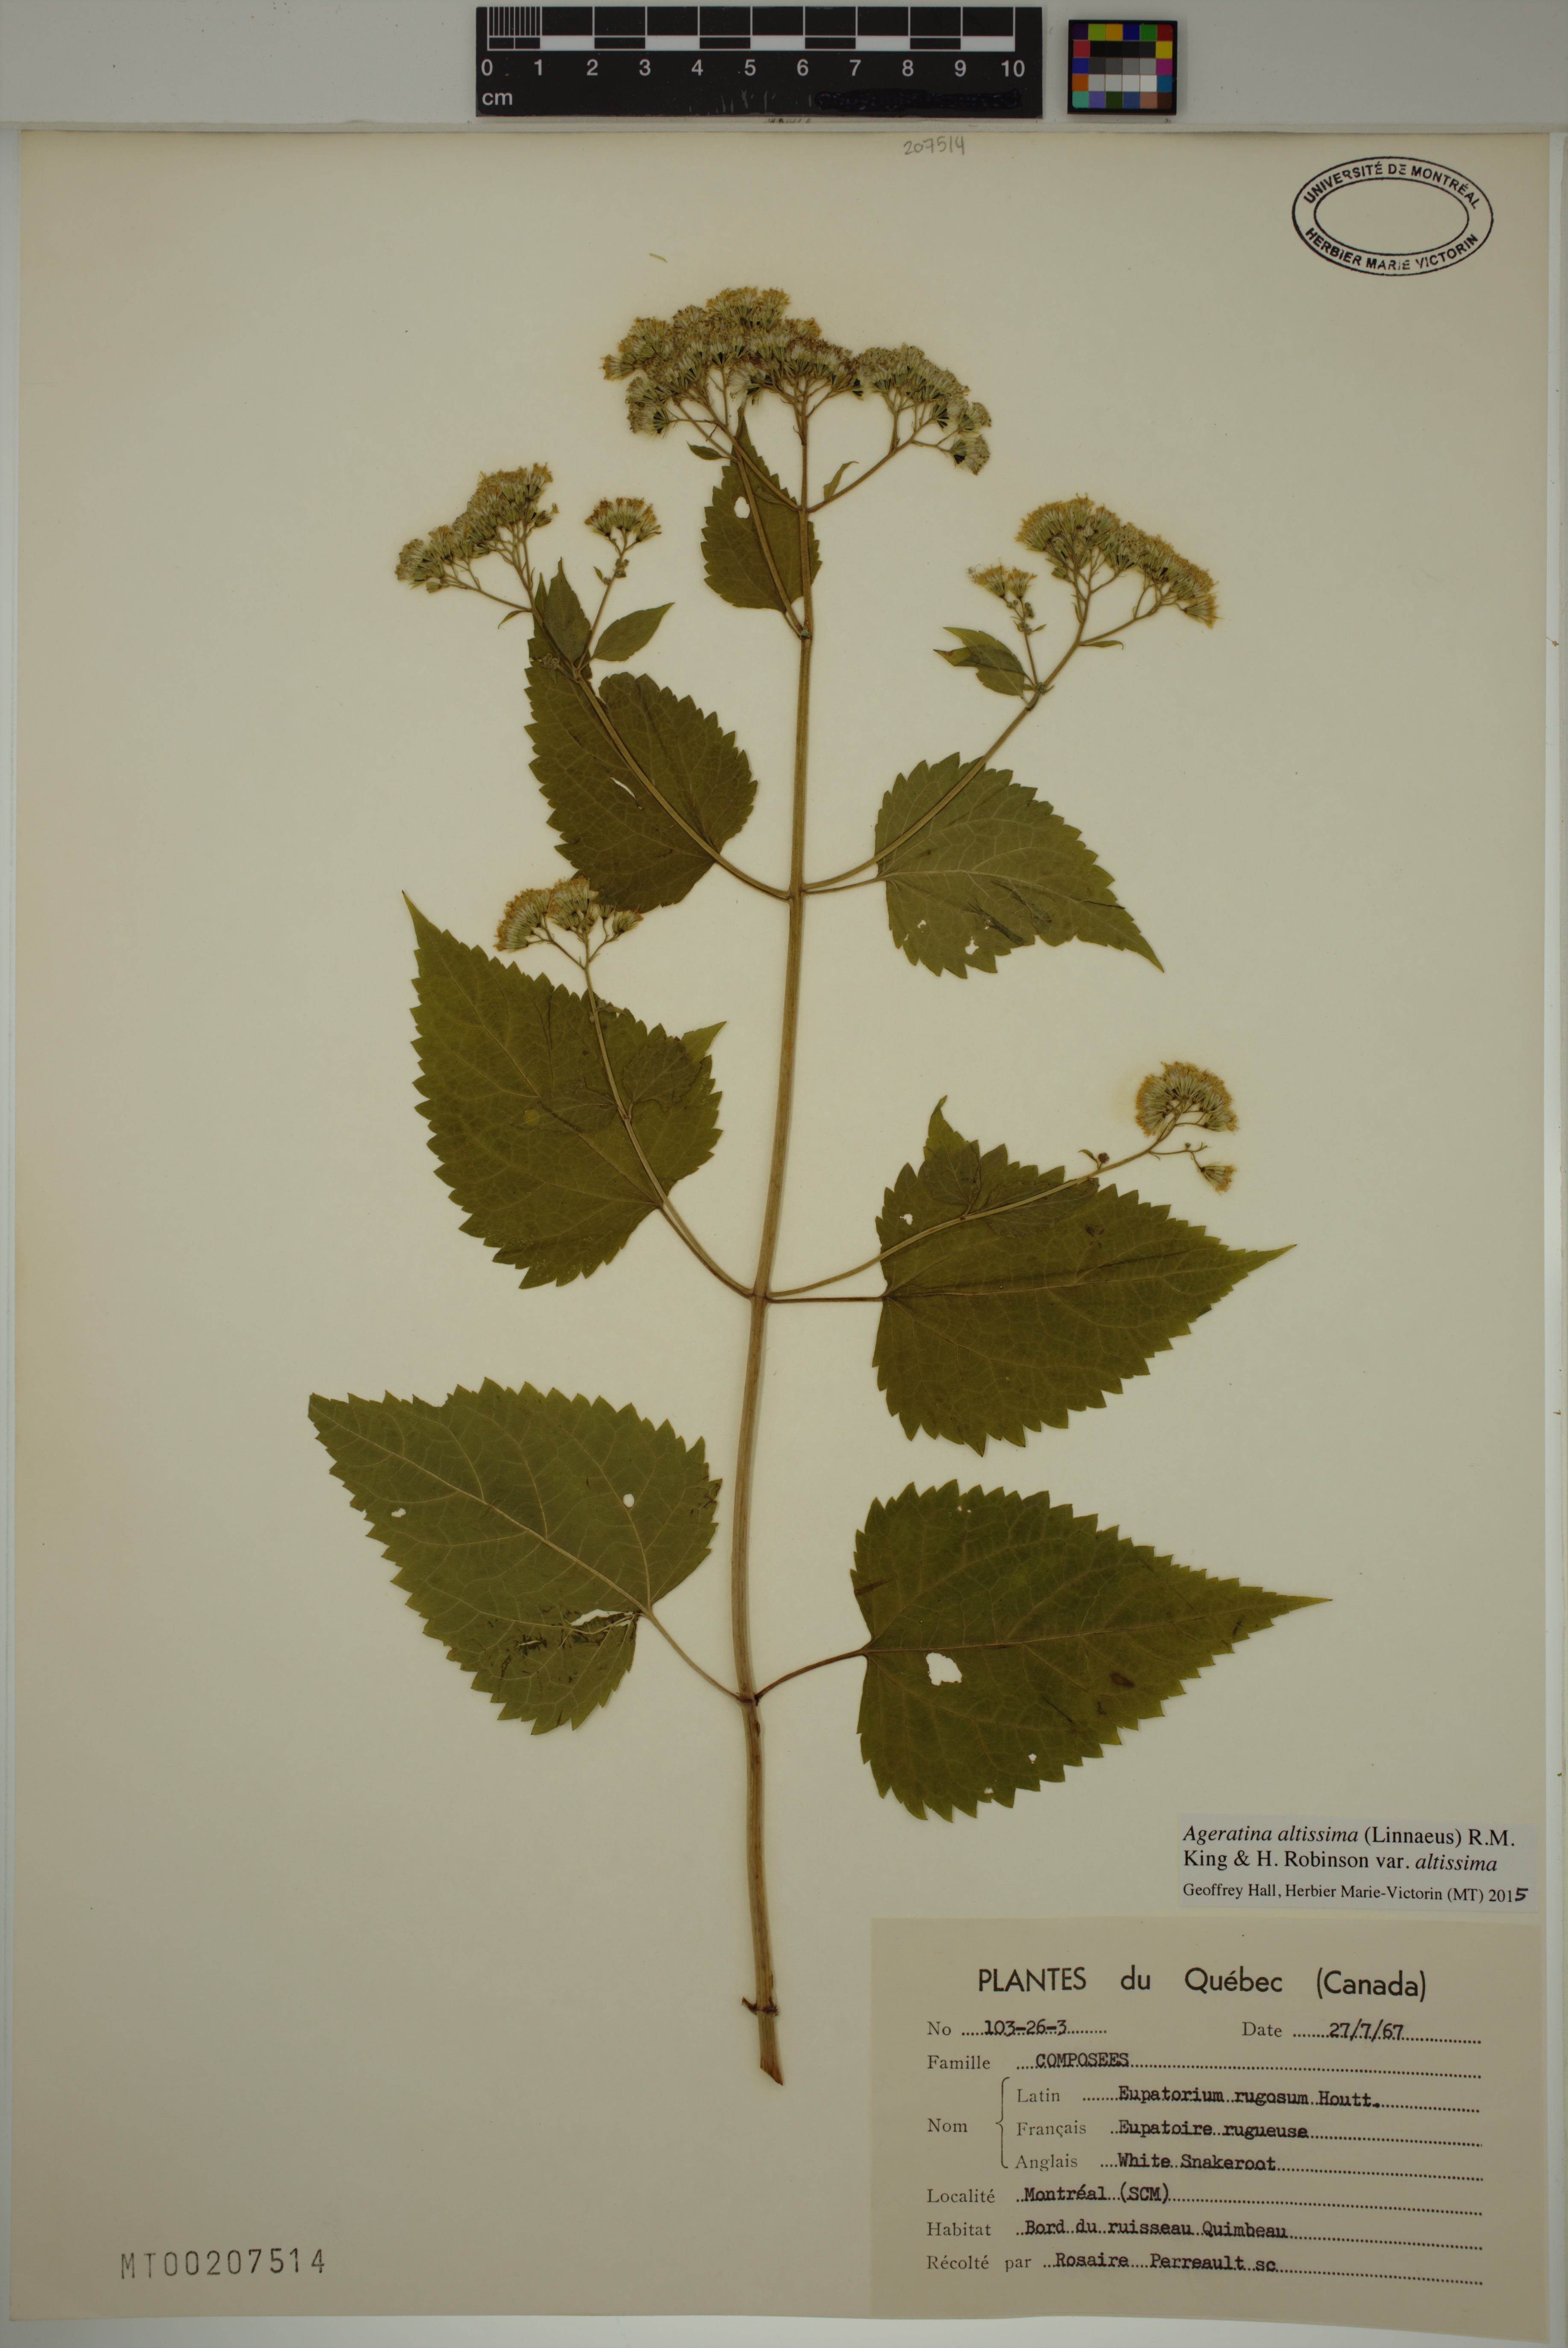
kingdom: Plantae
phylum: Tracheophyta
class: Magnoliopsida
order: Asterales
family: Asteraceae
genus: Ageratina
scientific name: Ageratina altissima
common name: White snakeroot
